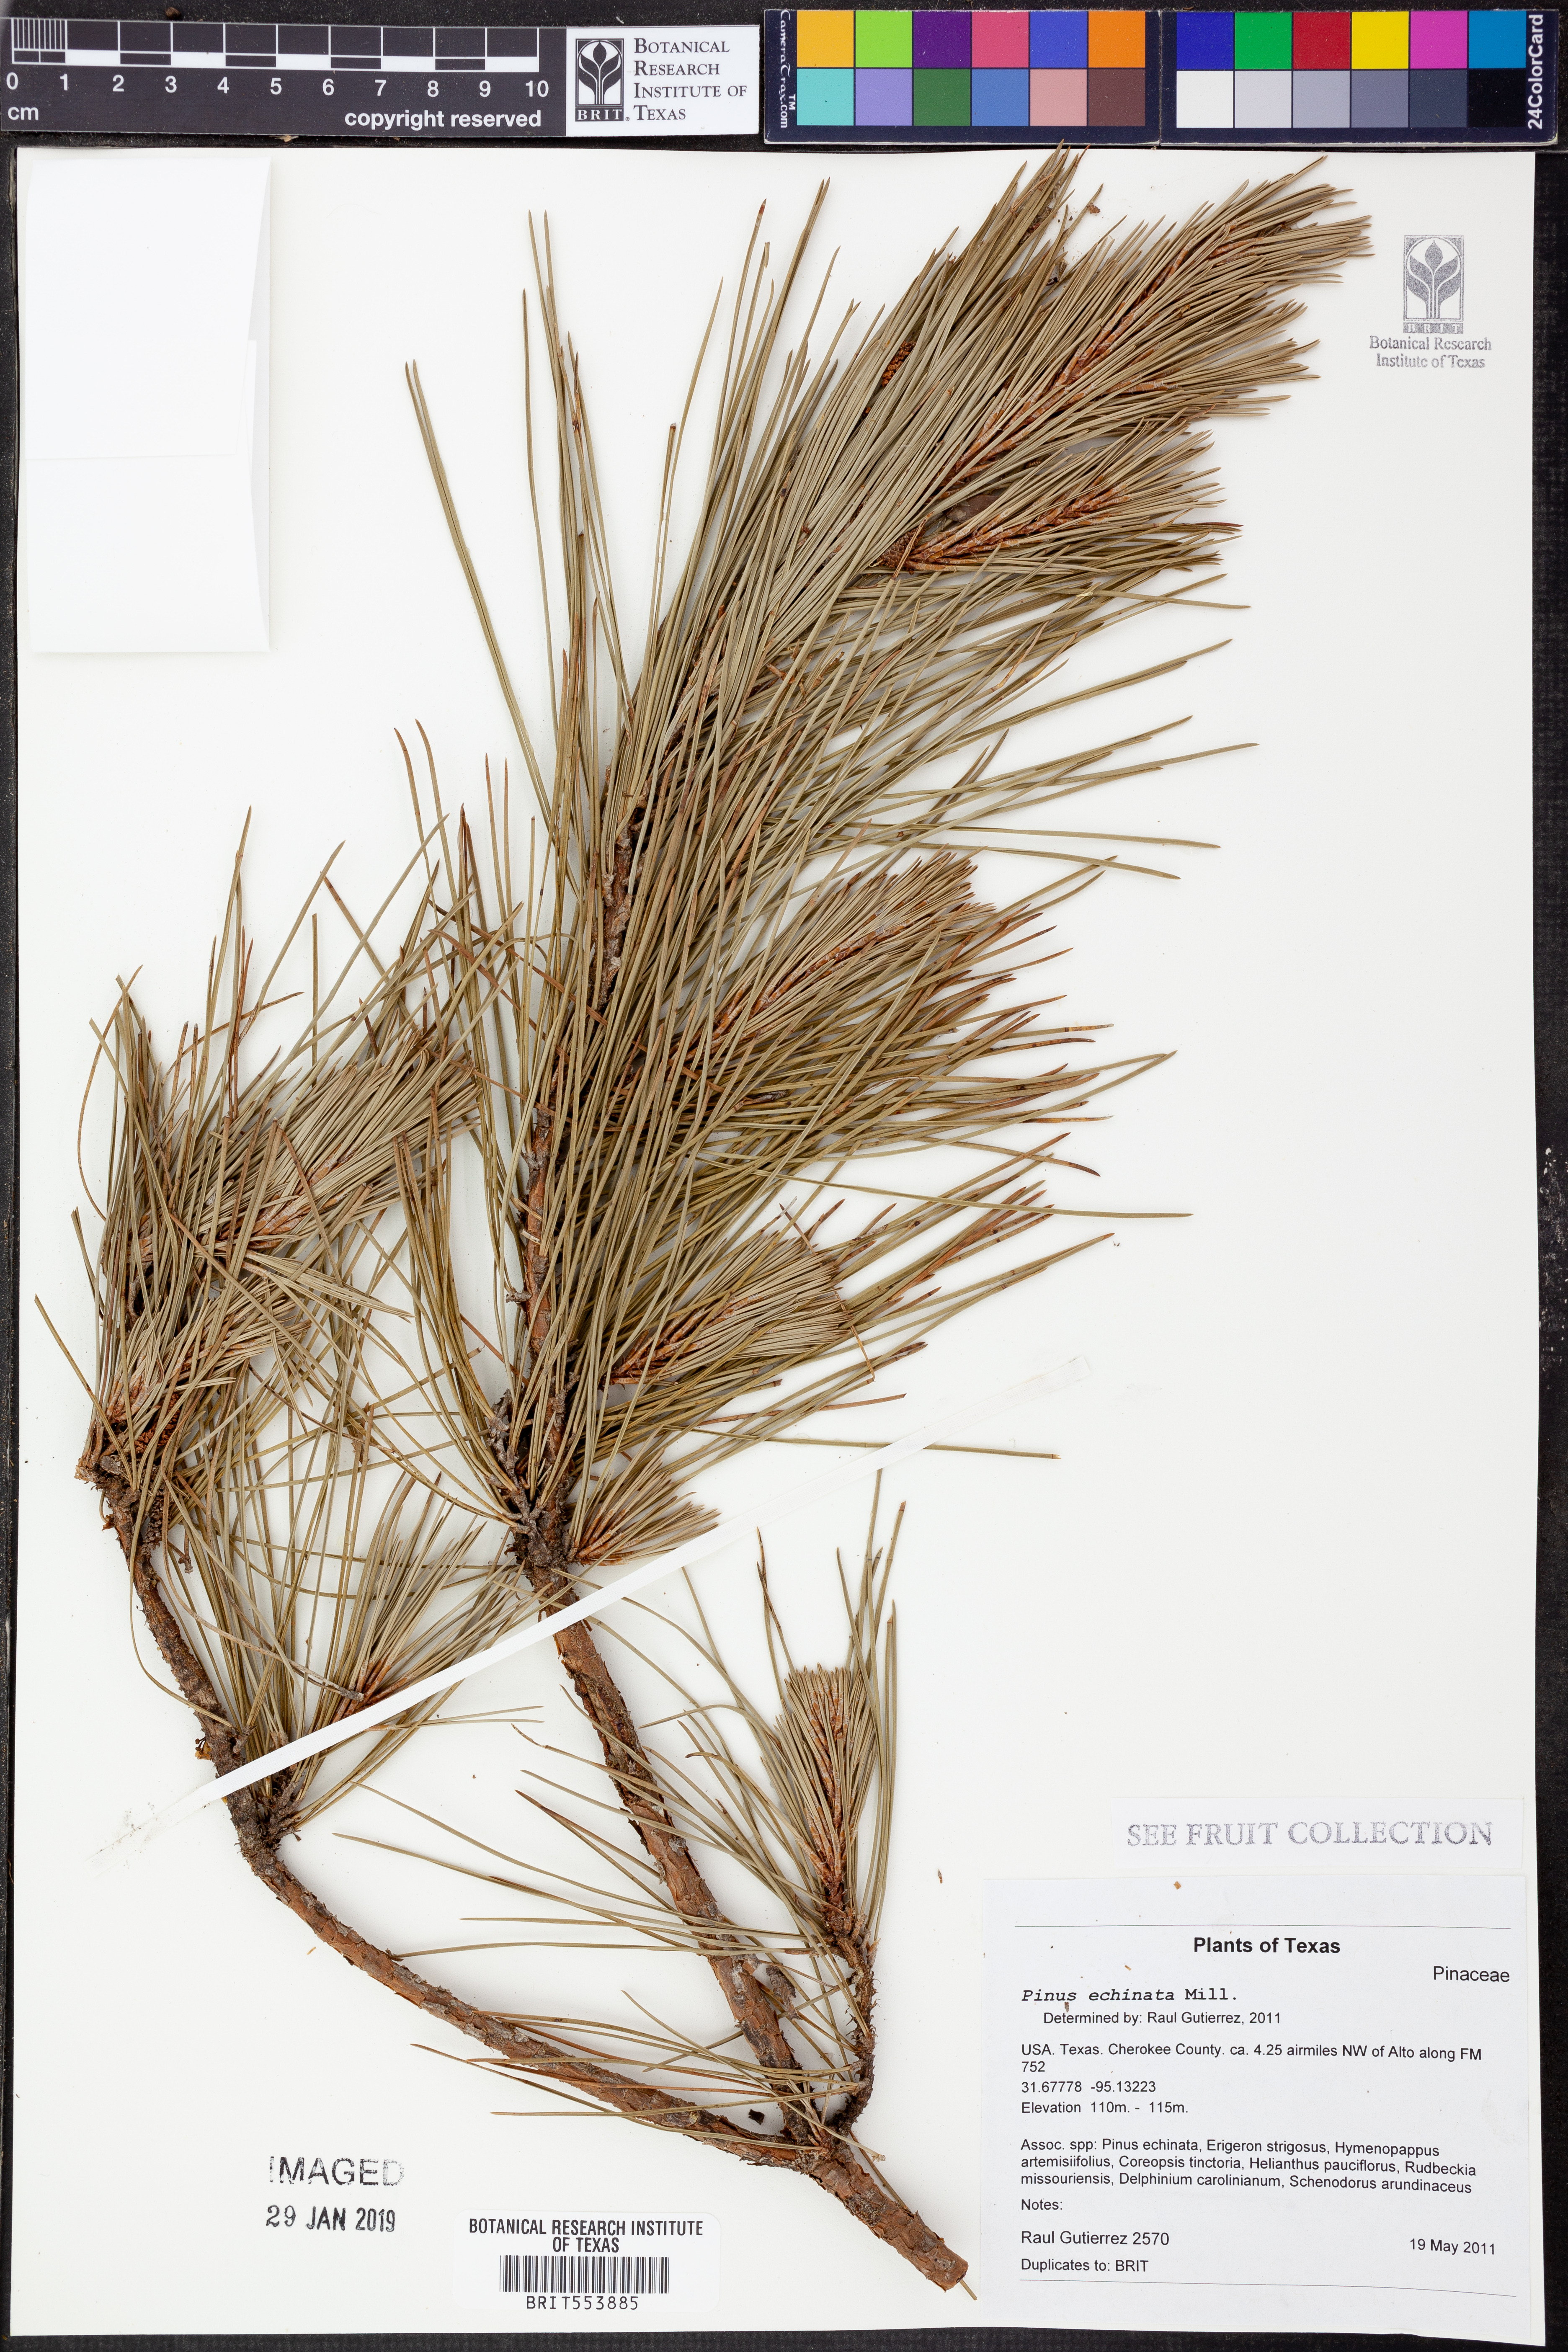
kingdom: Plantae
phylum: Tracheophyta
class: Pinopsida
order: Pinales
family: Pinaceae
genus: Pinus
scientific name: Pinus echinata
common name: Shortleaf pine
